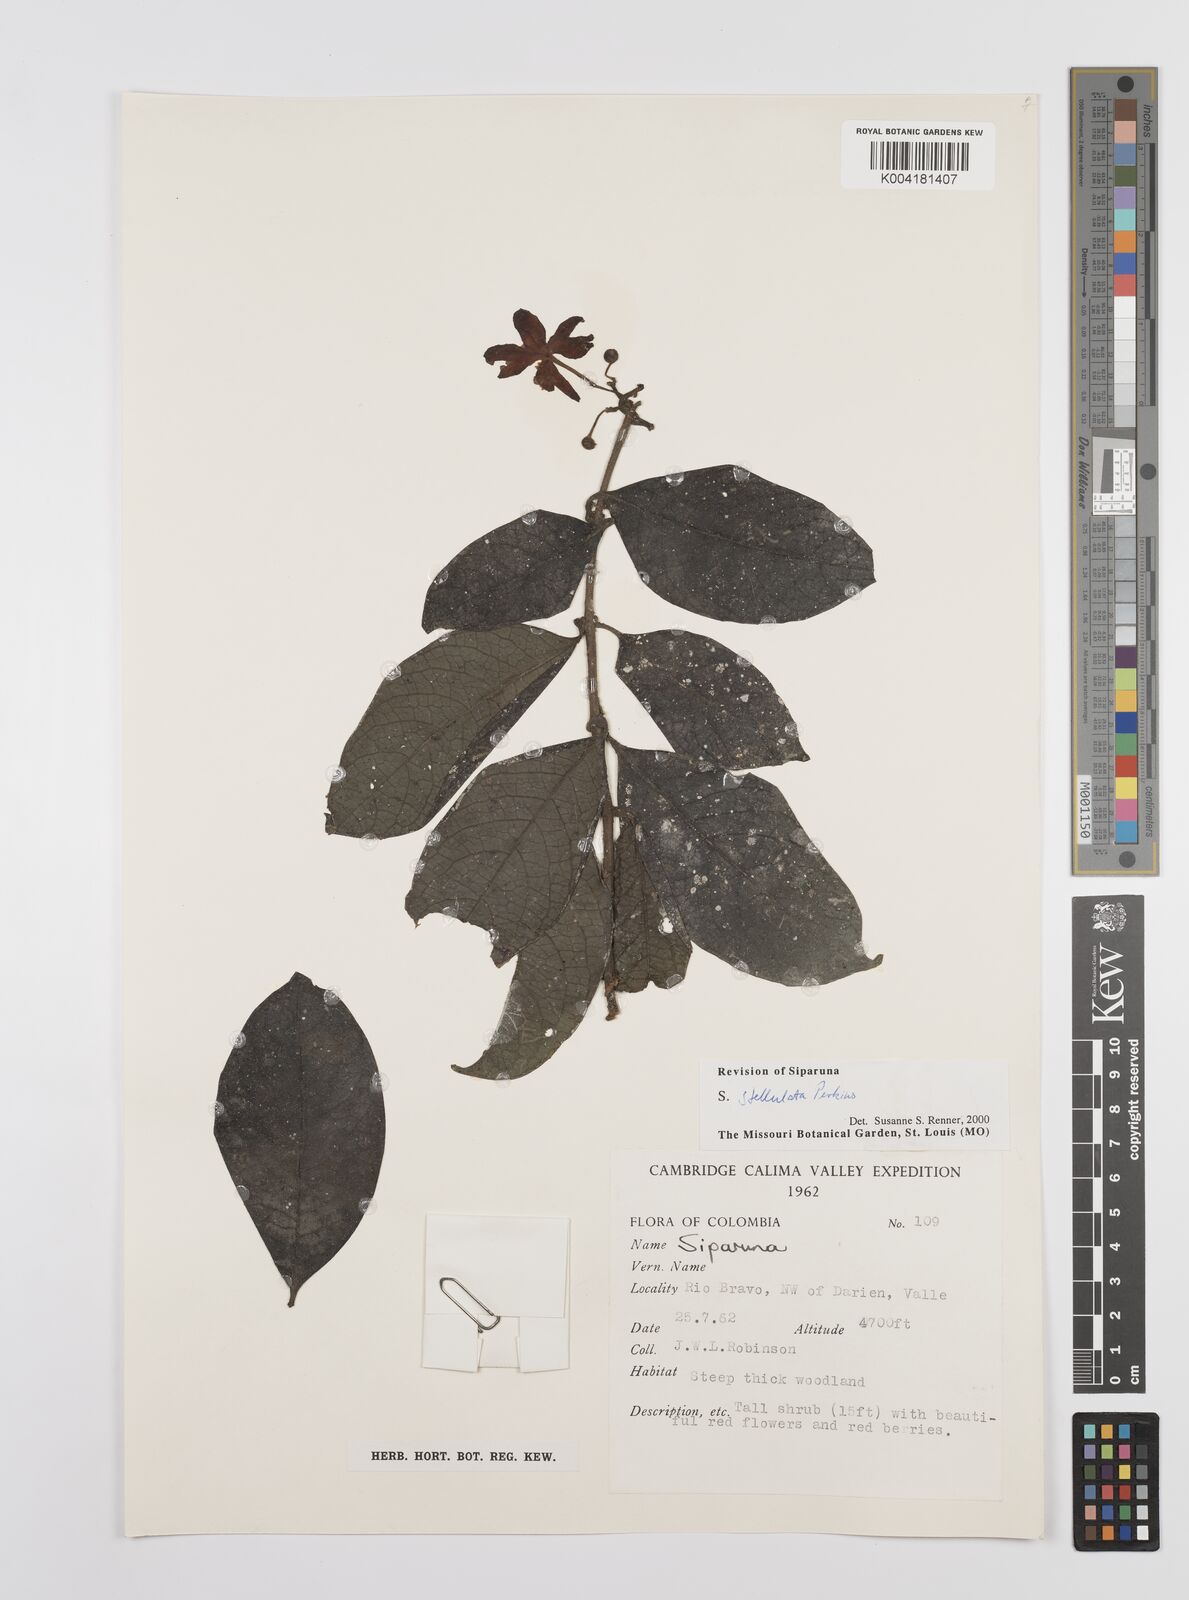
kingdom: Plantae
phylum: Tracheophyta
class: Magnoliopsida
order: Laurales
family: Siparunaceae
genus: Siparuna
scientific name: Siparuna stellulata
